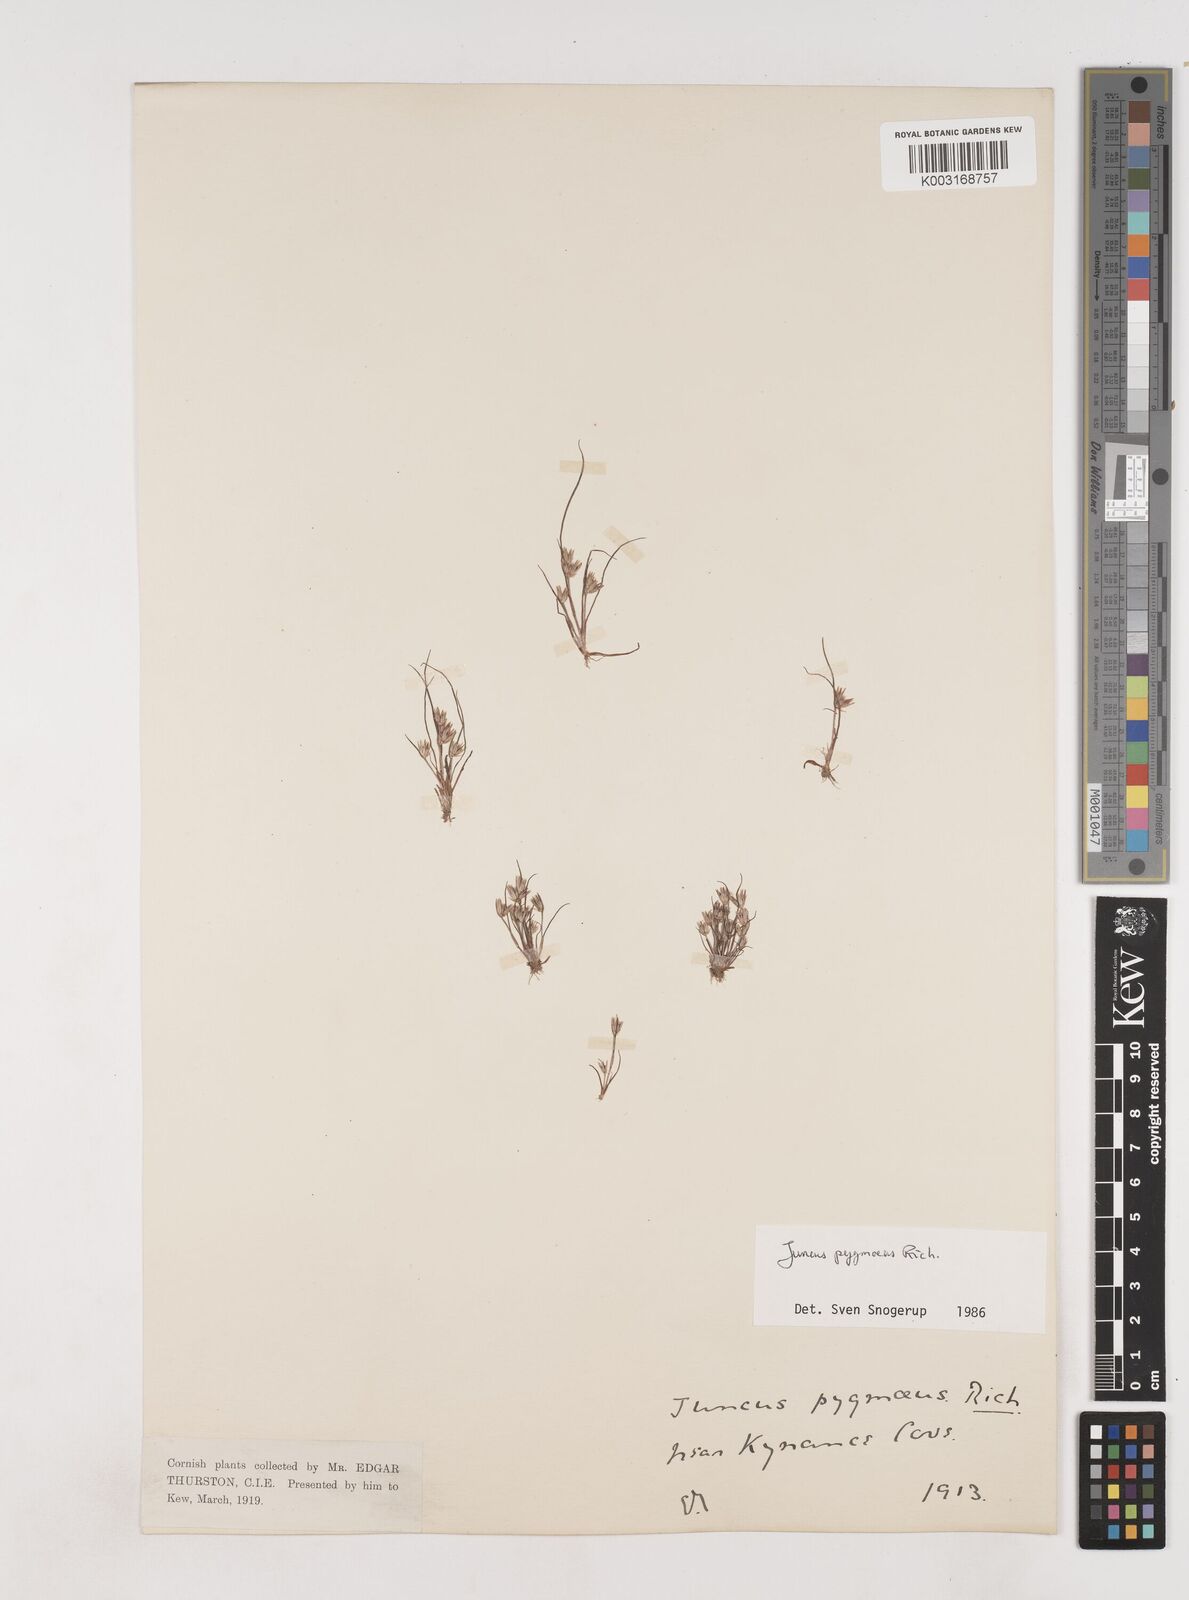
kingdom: Plantae
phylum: Tracheophyta
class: Liliopsida
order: Poales
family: Juncaceae
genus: Juncus
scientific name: Juncus pygmaeus
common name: Pigmy rush
